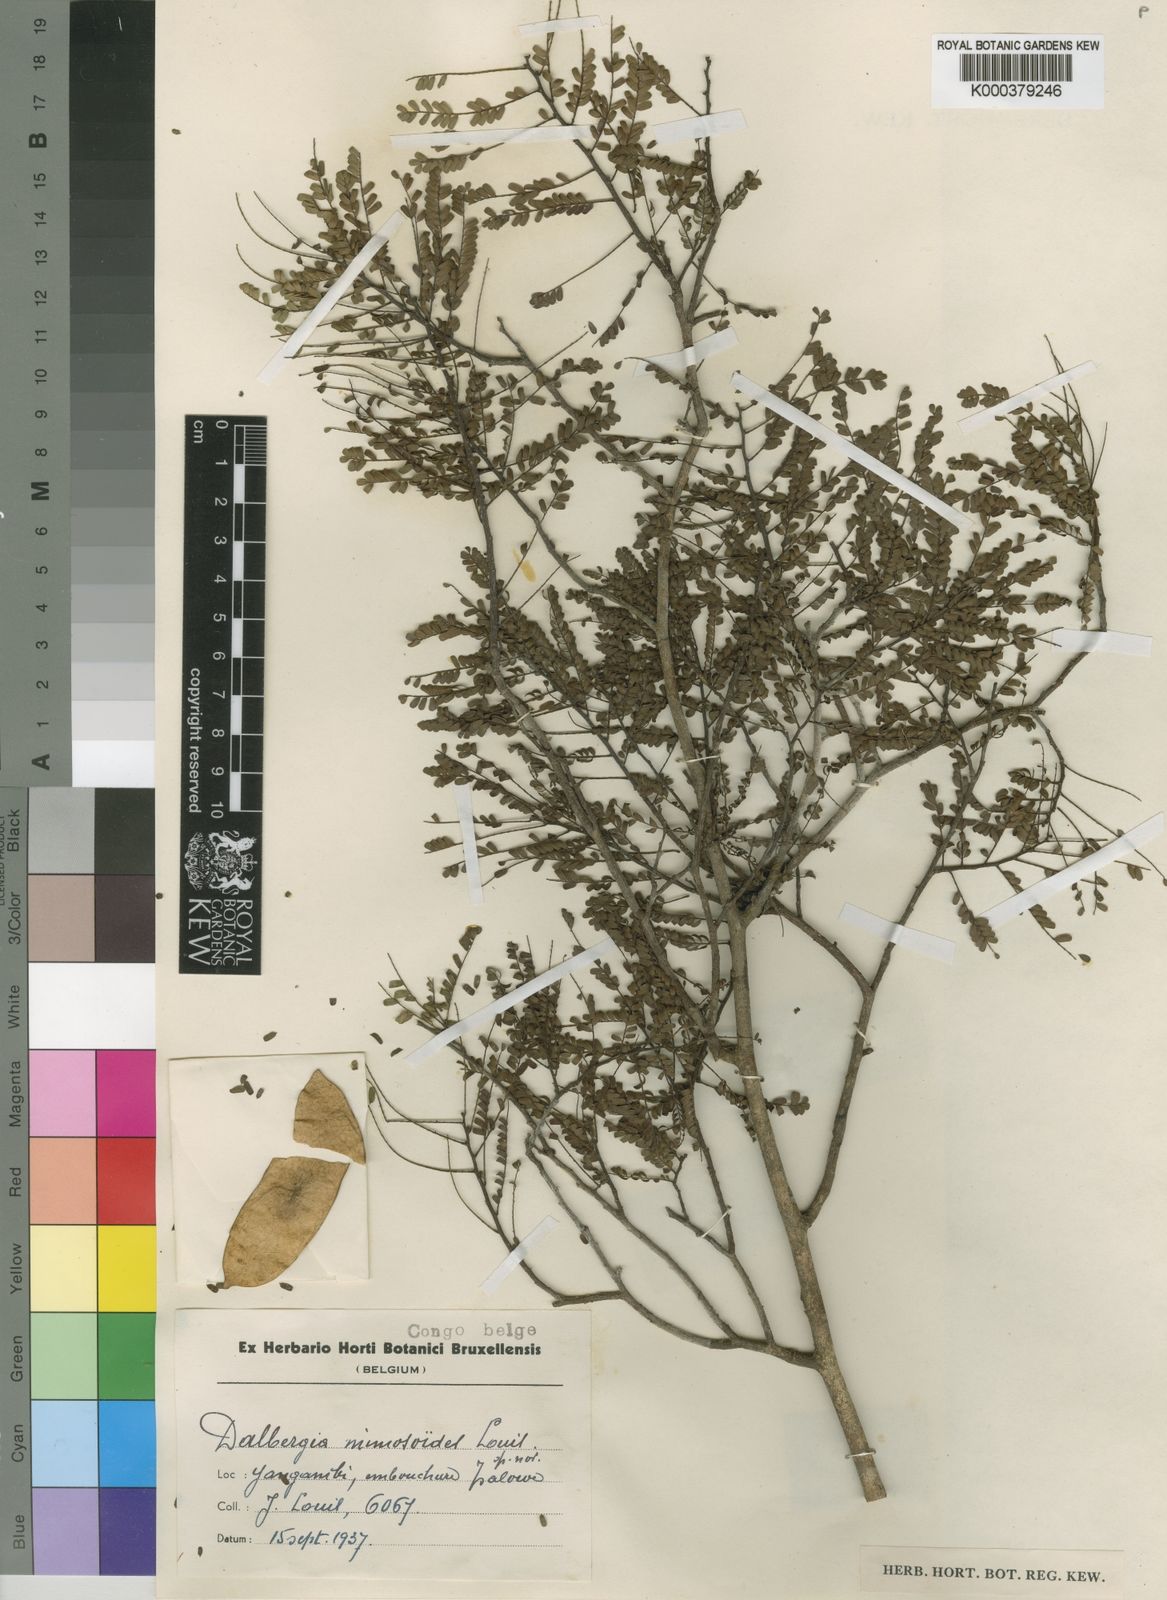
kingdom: Plantae
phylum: Tracheophyta
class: Magnoliopsida
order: Fabales
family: Fabaceae
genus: Dalbergia
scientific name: Dalbergia
